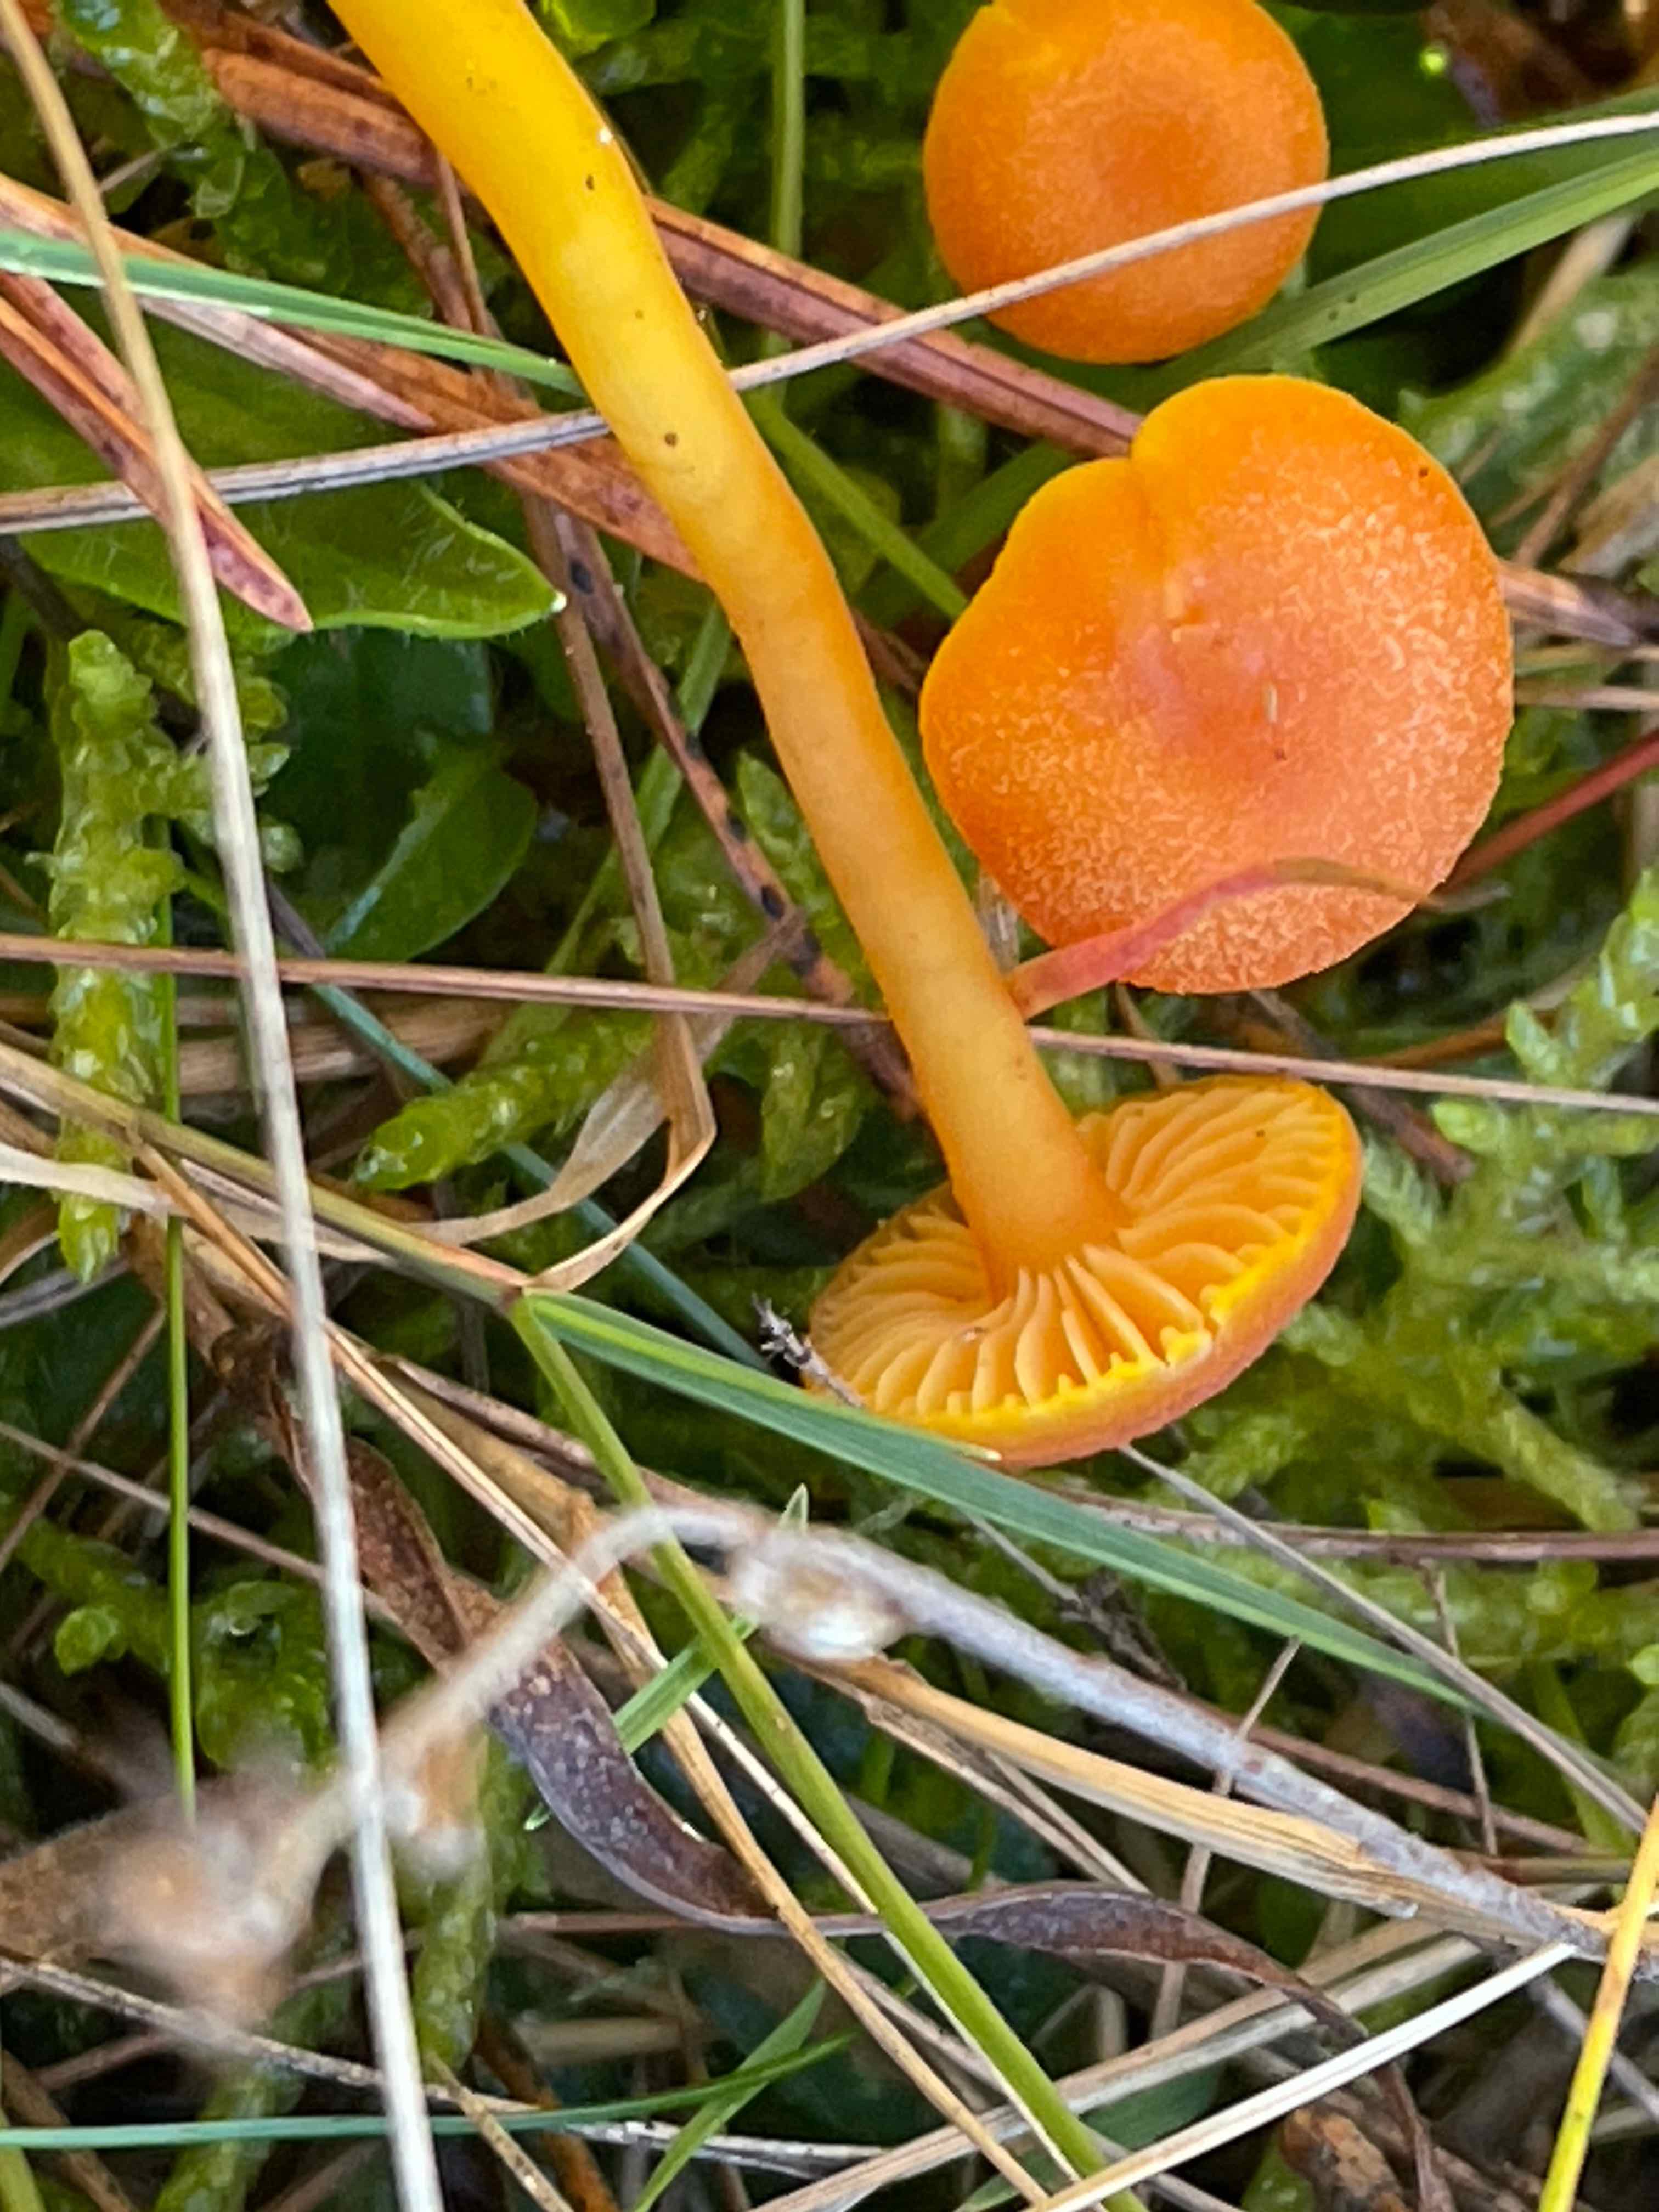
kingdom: Fungi
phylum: Basidiomycota
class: Agaricomycetes
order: Agaricales
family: Hygrophoraceae
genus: Hygrocybe
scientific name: Hygrocybe miniata
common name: mønje-vokshat
